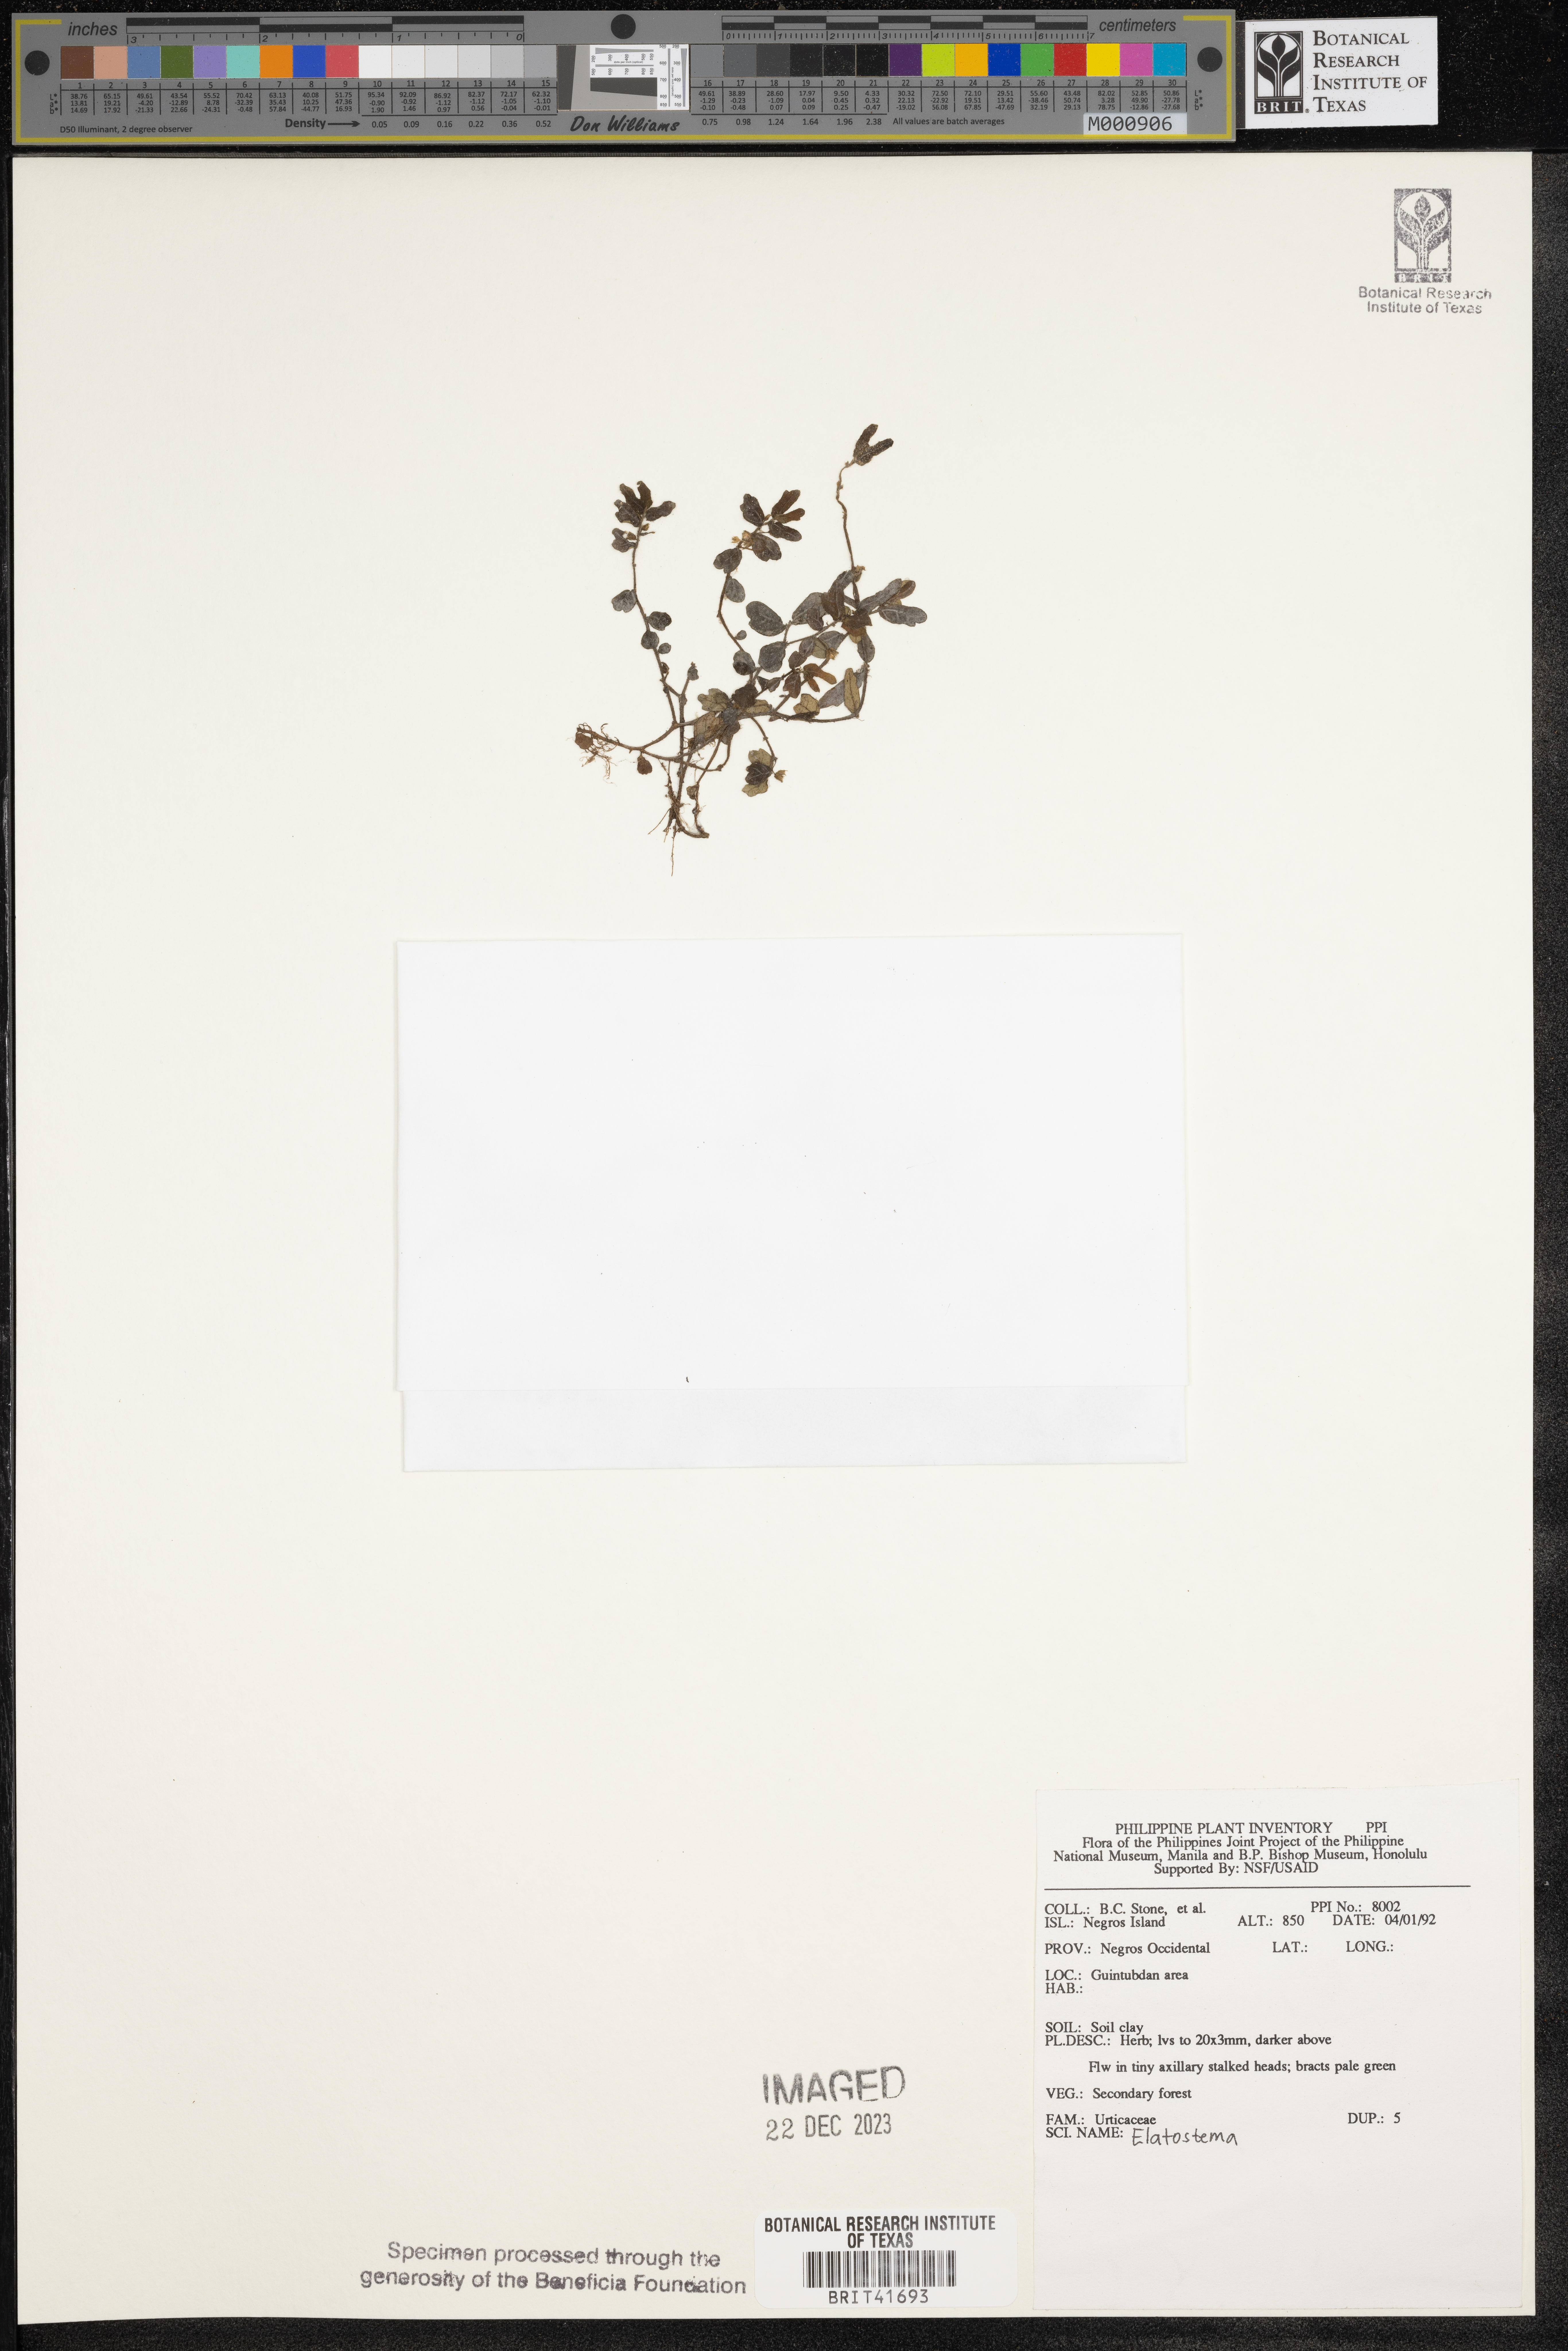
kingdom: Plantae
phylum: Tracheophyta
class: Magnoliopsida
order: Rosales
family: Urticaceae
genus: Elatostema
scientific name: Elatostema
